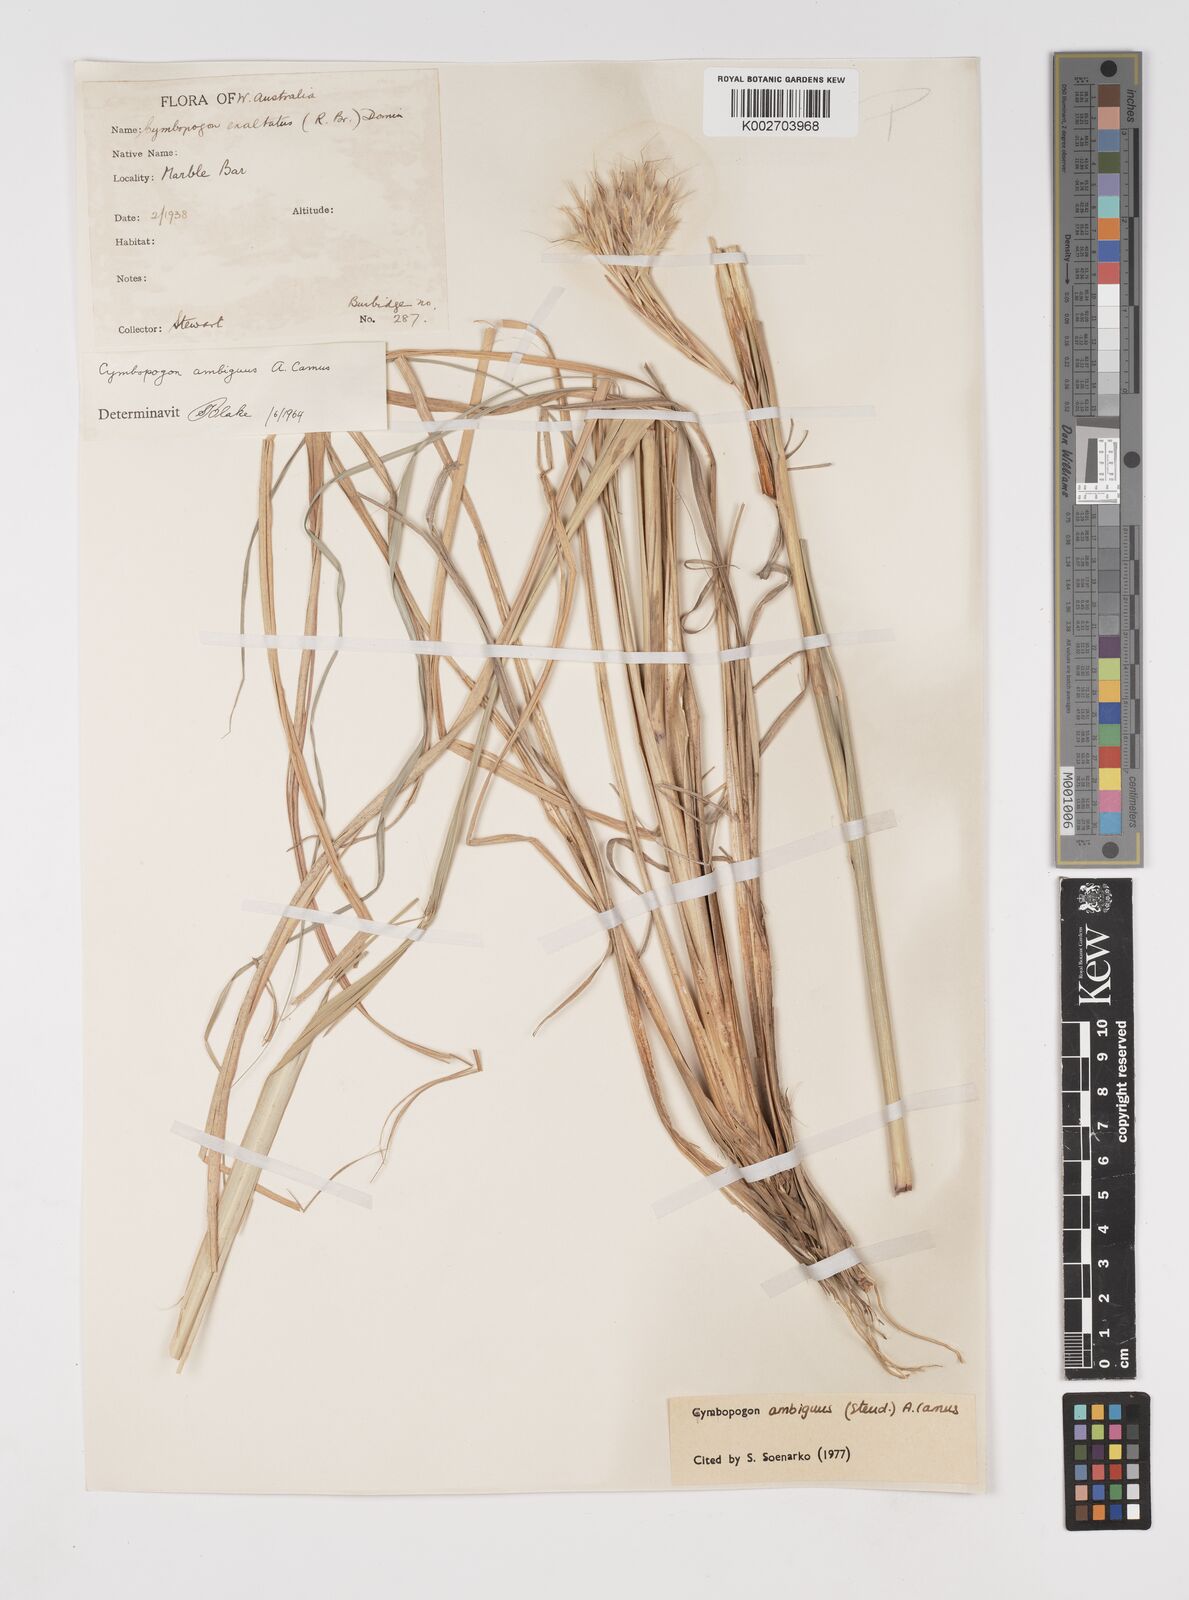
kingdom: Plantae
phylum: Tracheophyta
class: Liliopsida
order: Poales
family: Poaceae
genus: Cymbopogon
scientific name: Cymbopogon ambiguus
